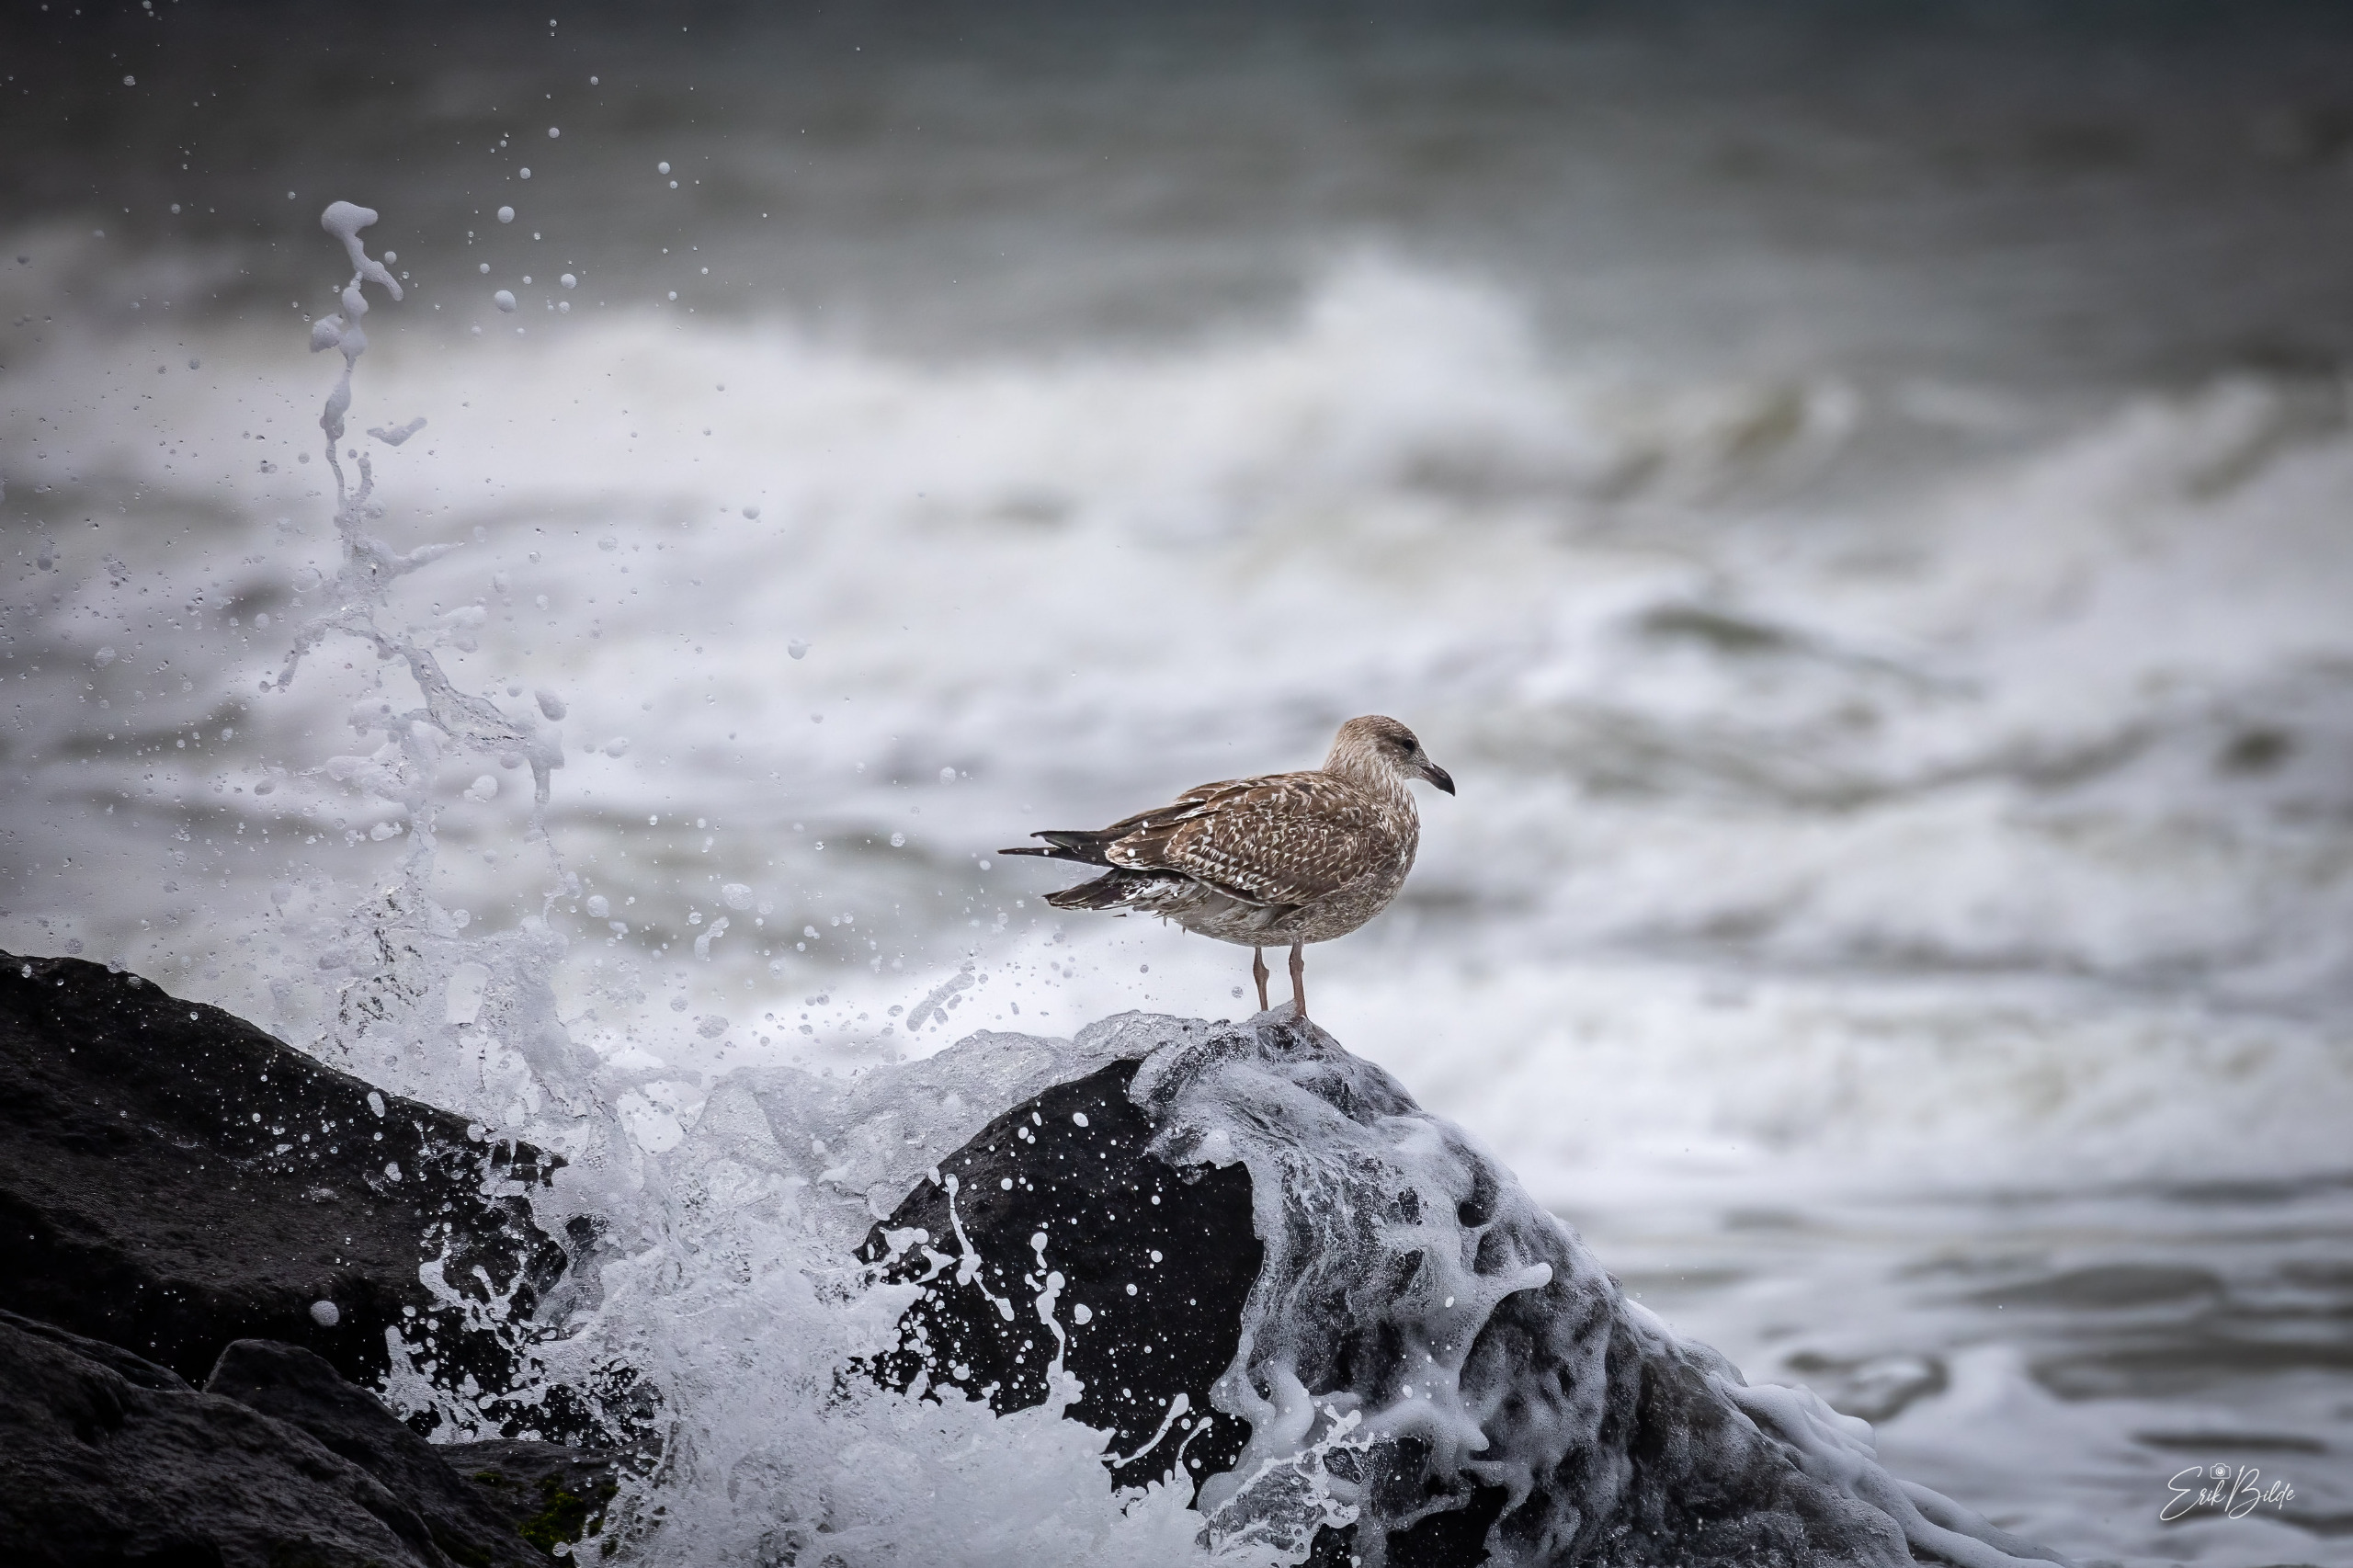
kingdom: Animalia
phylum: Chordata
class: Aves
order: Charadriiformes
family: Laridae
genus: Larus
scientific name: Larus argentatus
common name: Sølvmåge
